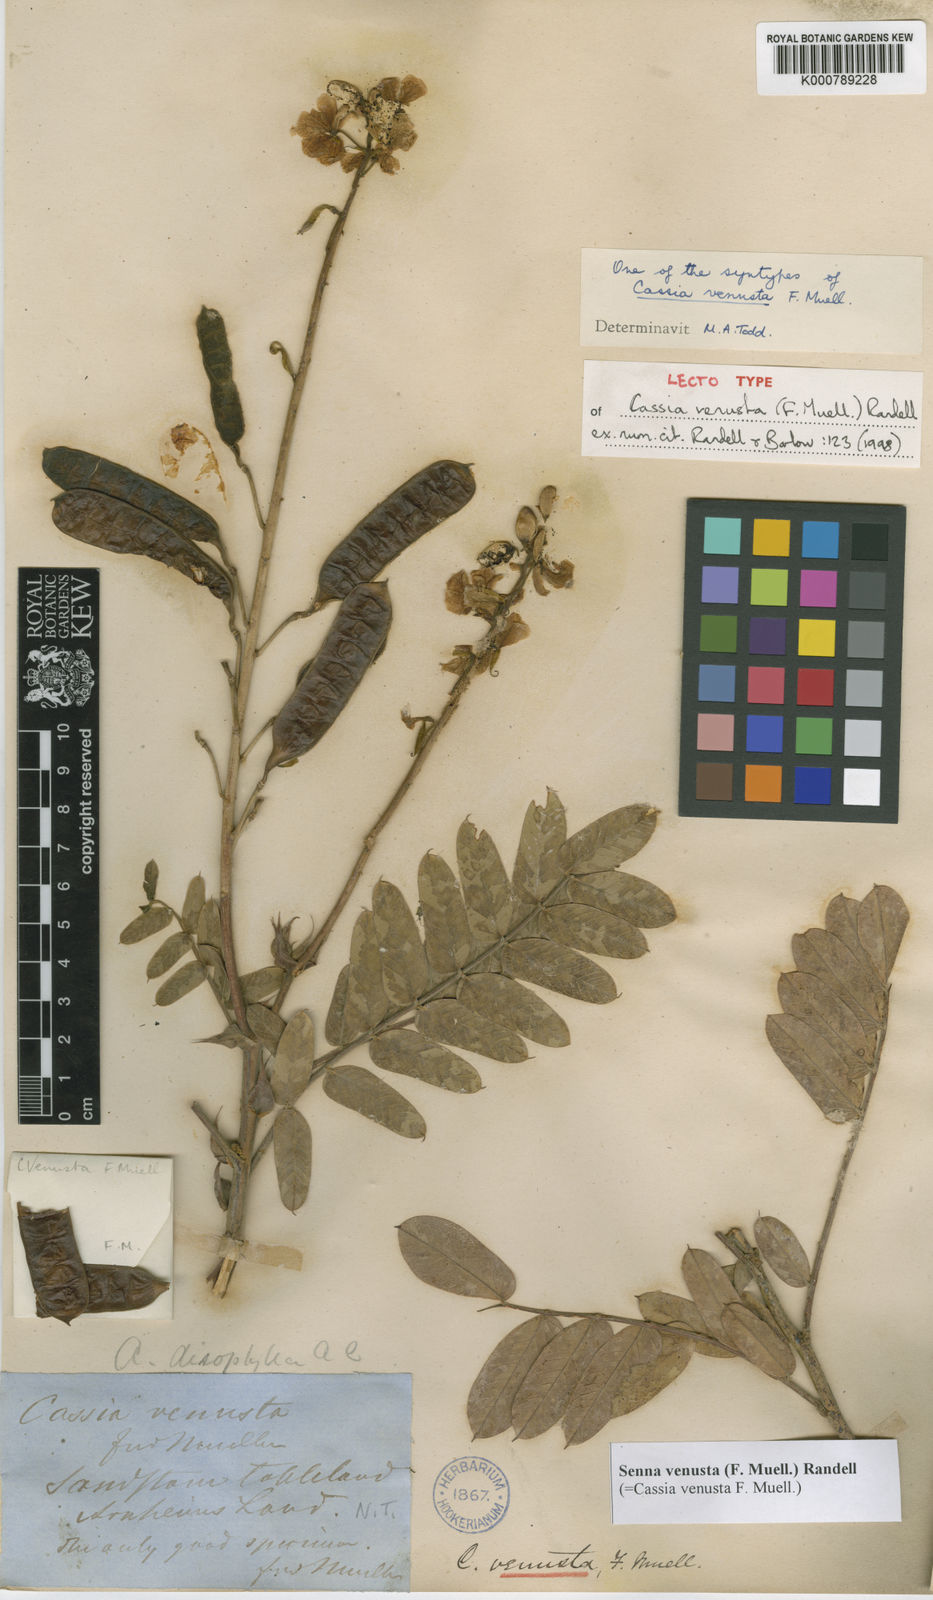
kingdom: Plantae
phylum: Tracheophyta
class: Magnoliopsida
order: Fabales
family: Fabaceae
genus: Senna
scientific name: Senna venusta
